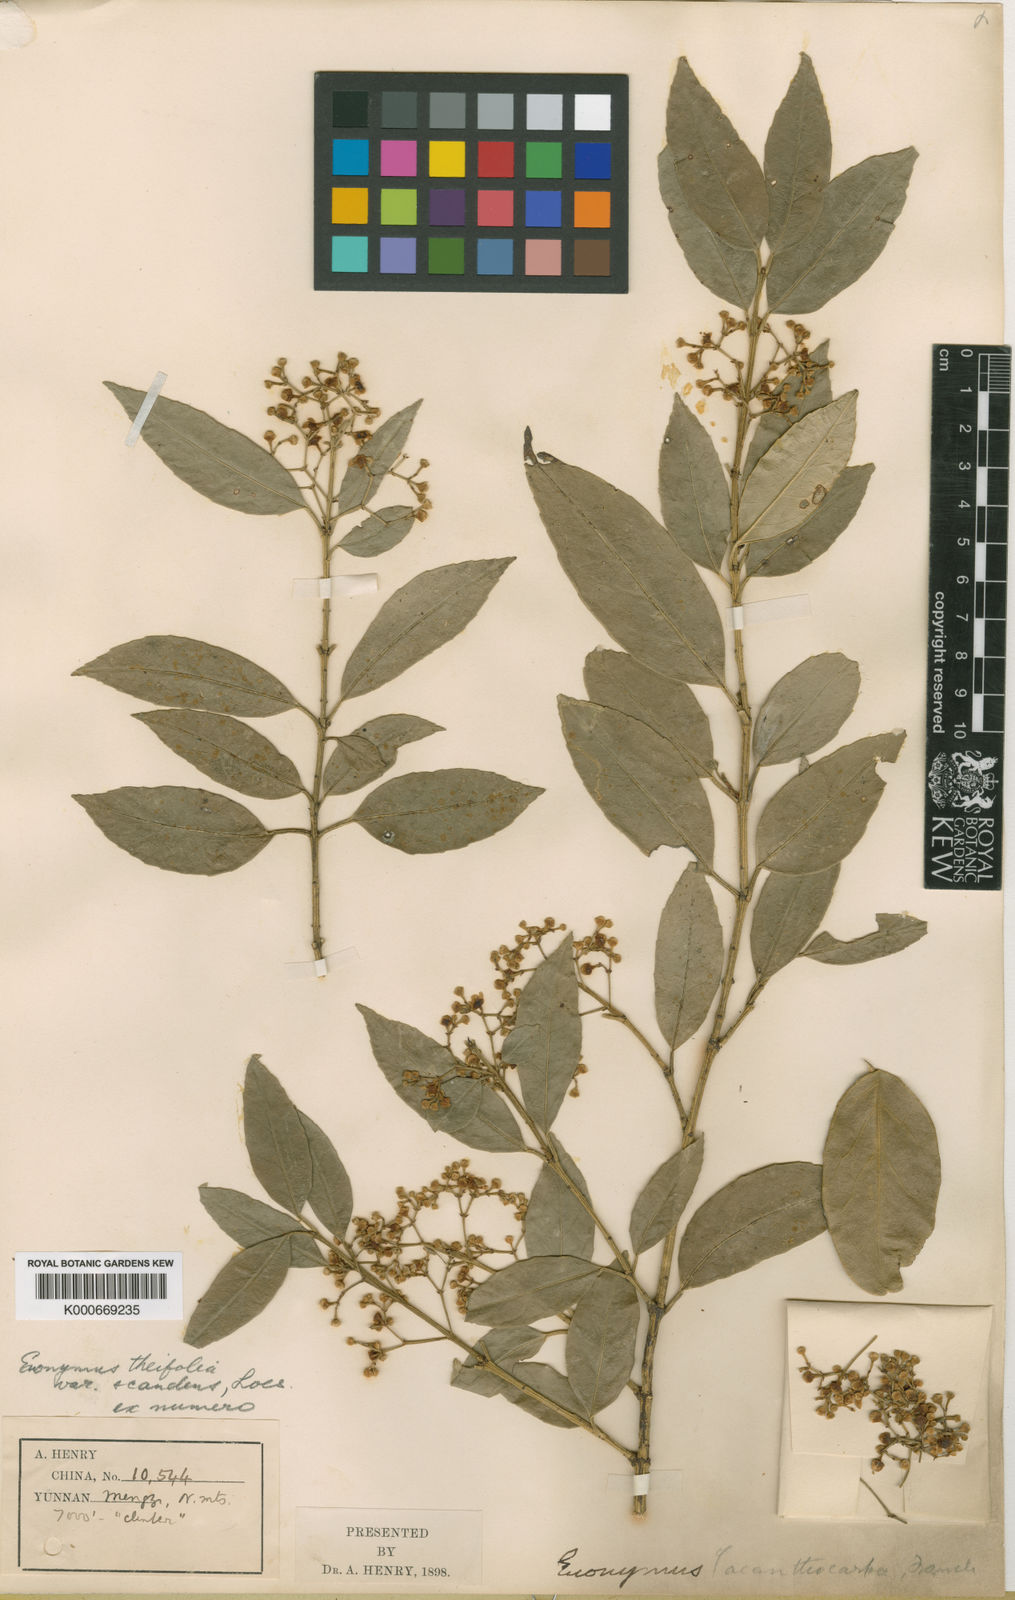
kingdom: Plantae
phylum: Tracheophyta
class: Magnoliopsida
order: Celastrales
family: Celastraceae
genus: Euonymus
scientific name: Euonymus acanthocarpus
